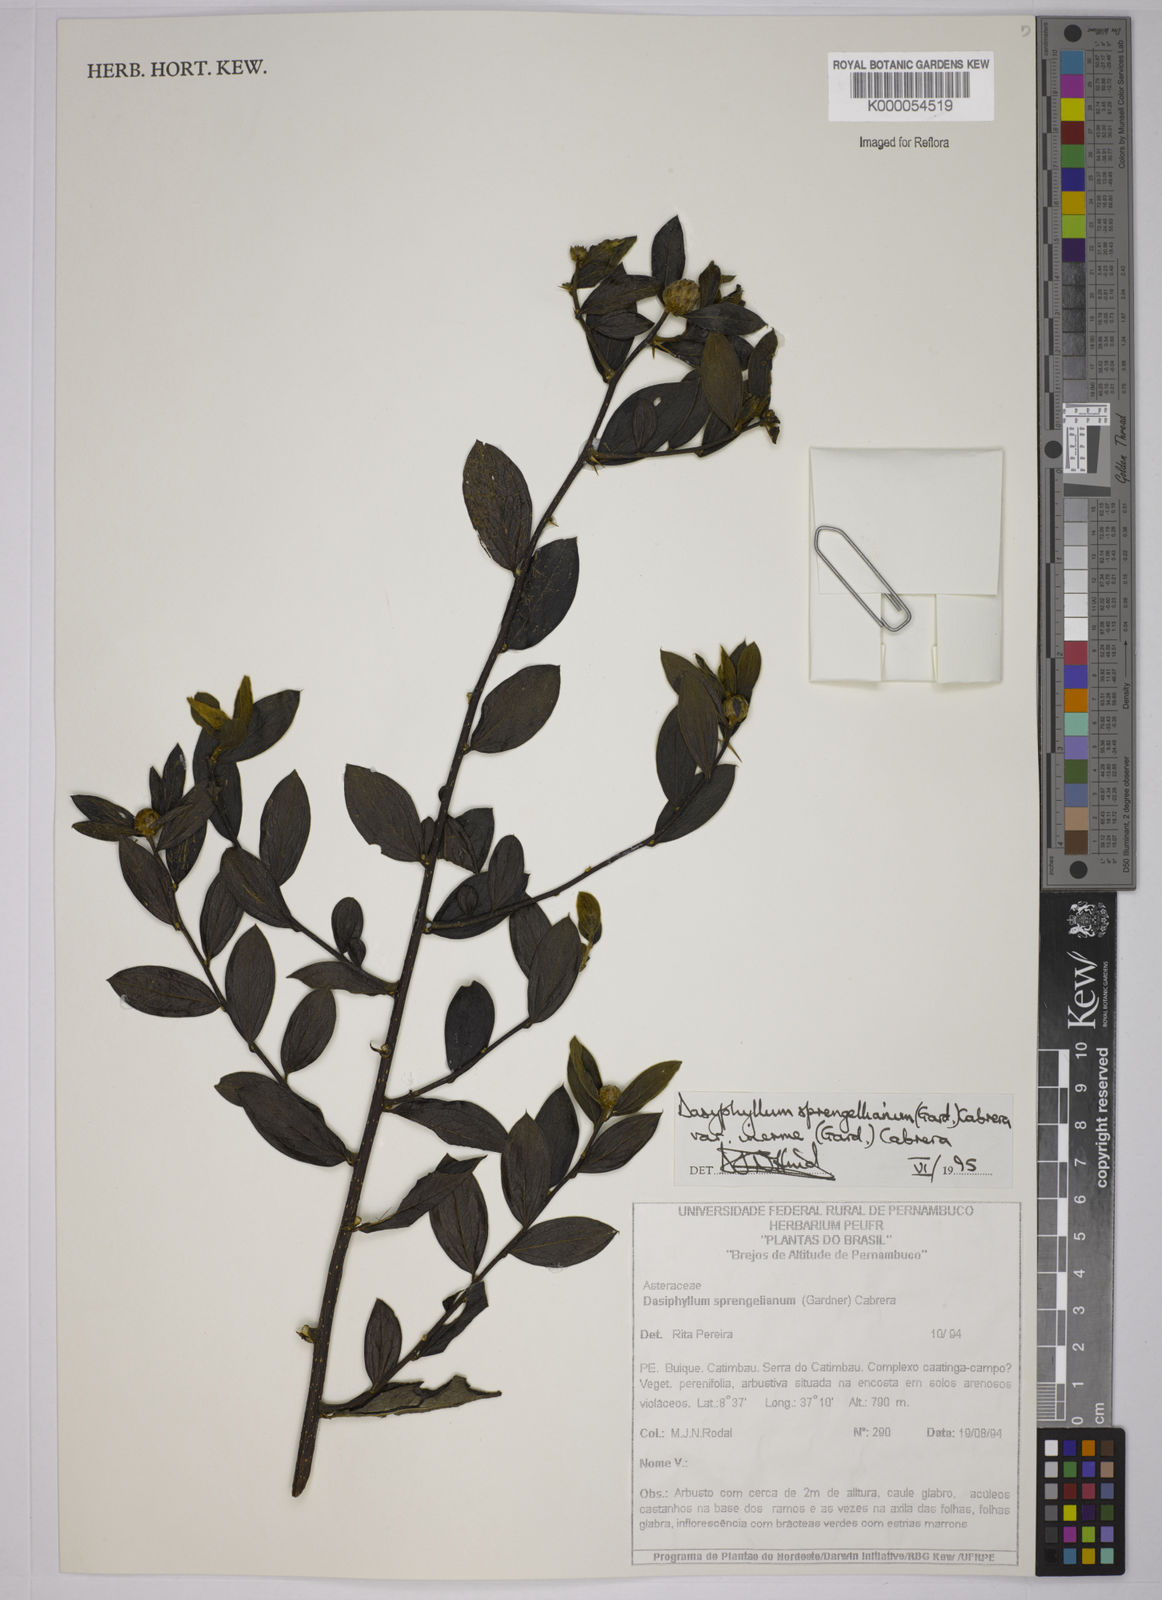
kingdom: Plantae
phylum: Tracheophyta
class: Magnoliopsida
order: Asterales
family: Asteraceae
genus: Dasyphyllum
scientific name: Dasyphyllum sprengelianum
